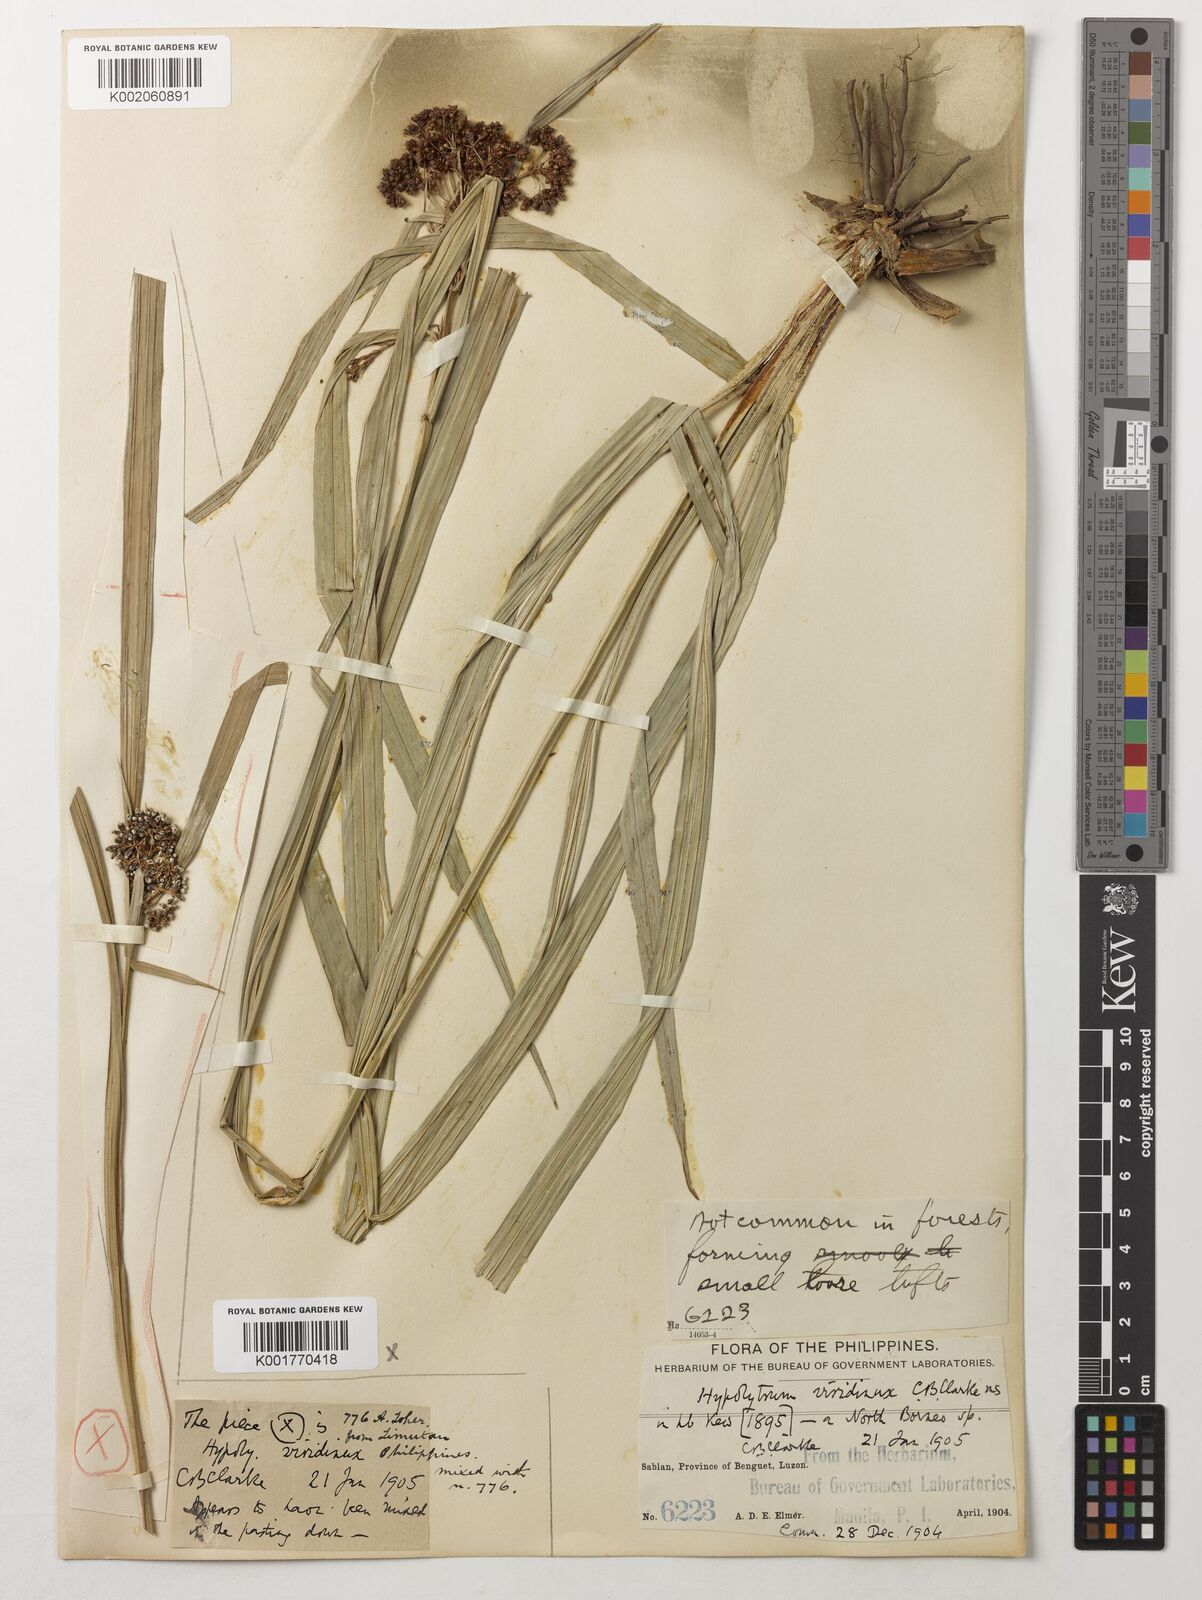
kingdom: Plantae
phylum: Tracheophyta
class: Liliopsida
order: Poales
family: Cyperaceae
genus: Hypolytrum
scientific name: Hypolytrum nemorum
